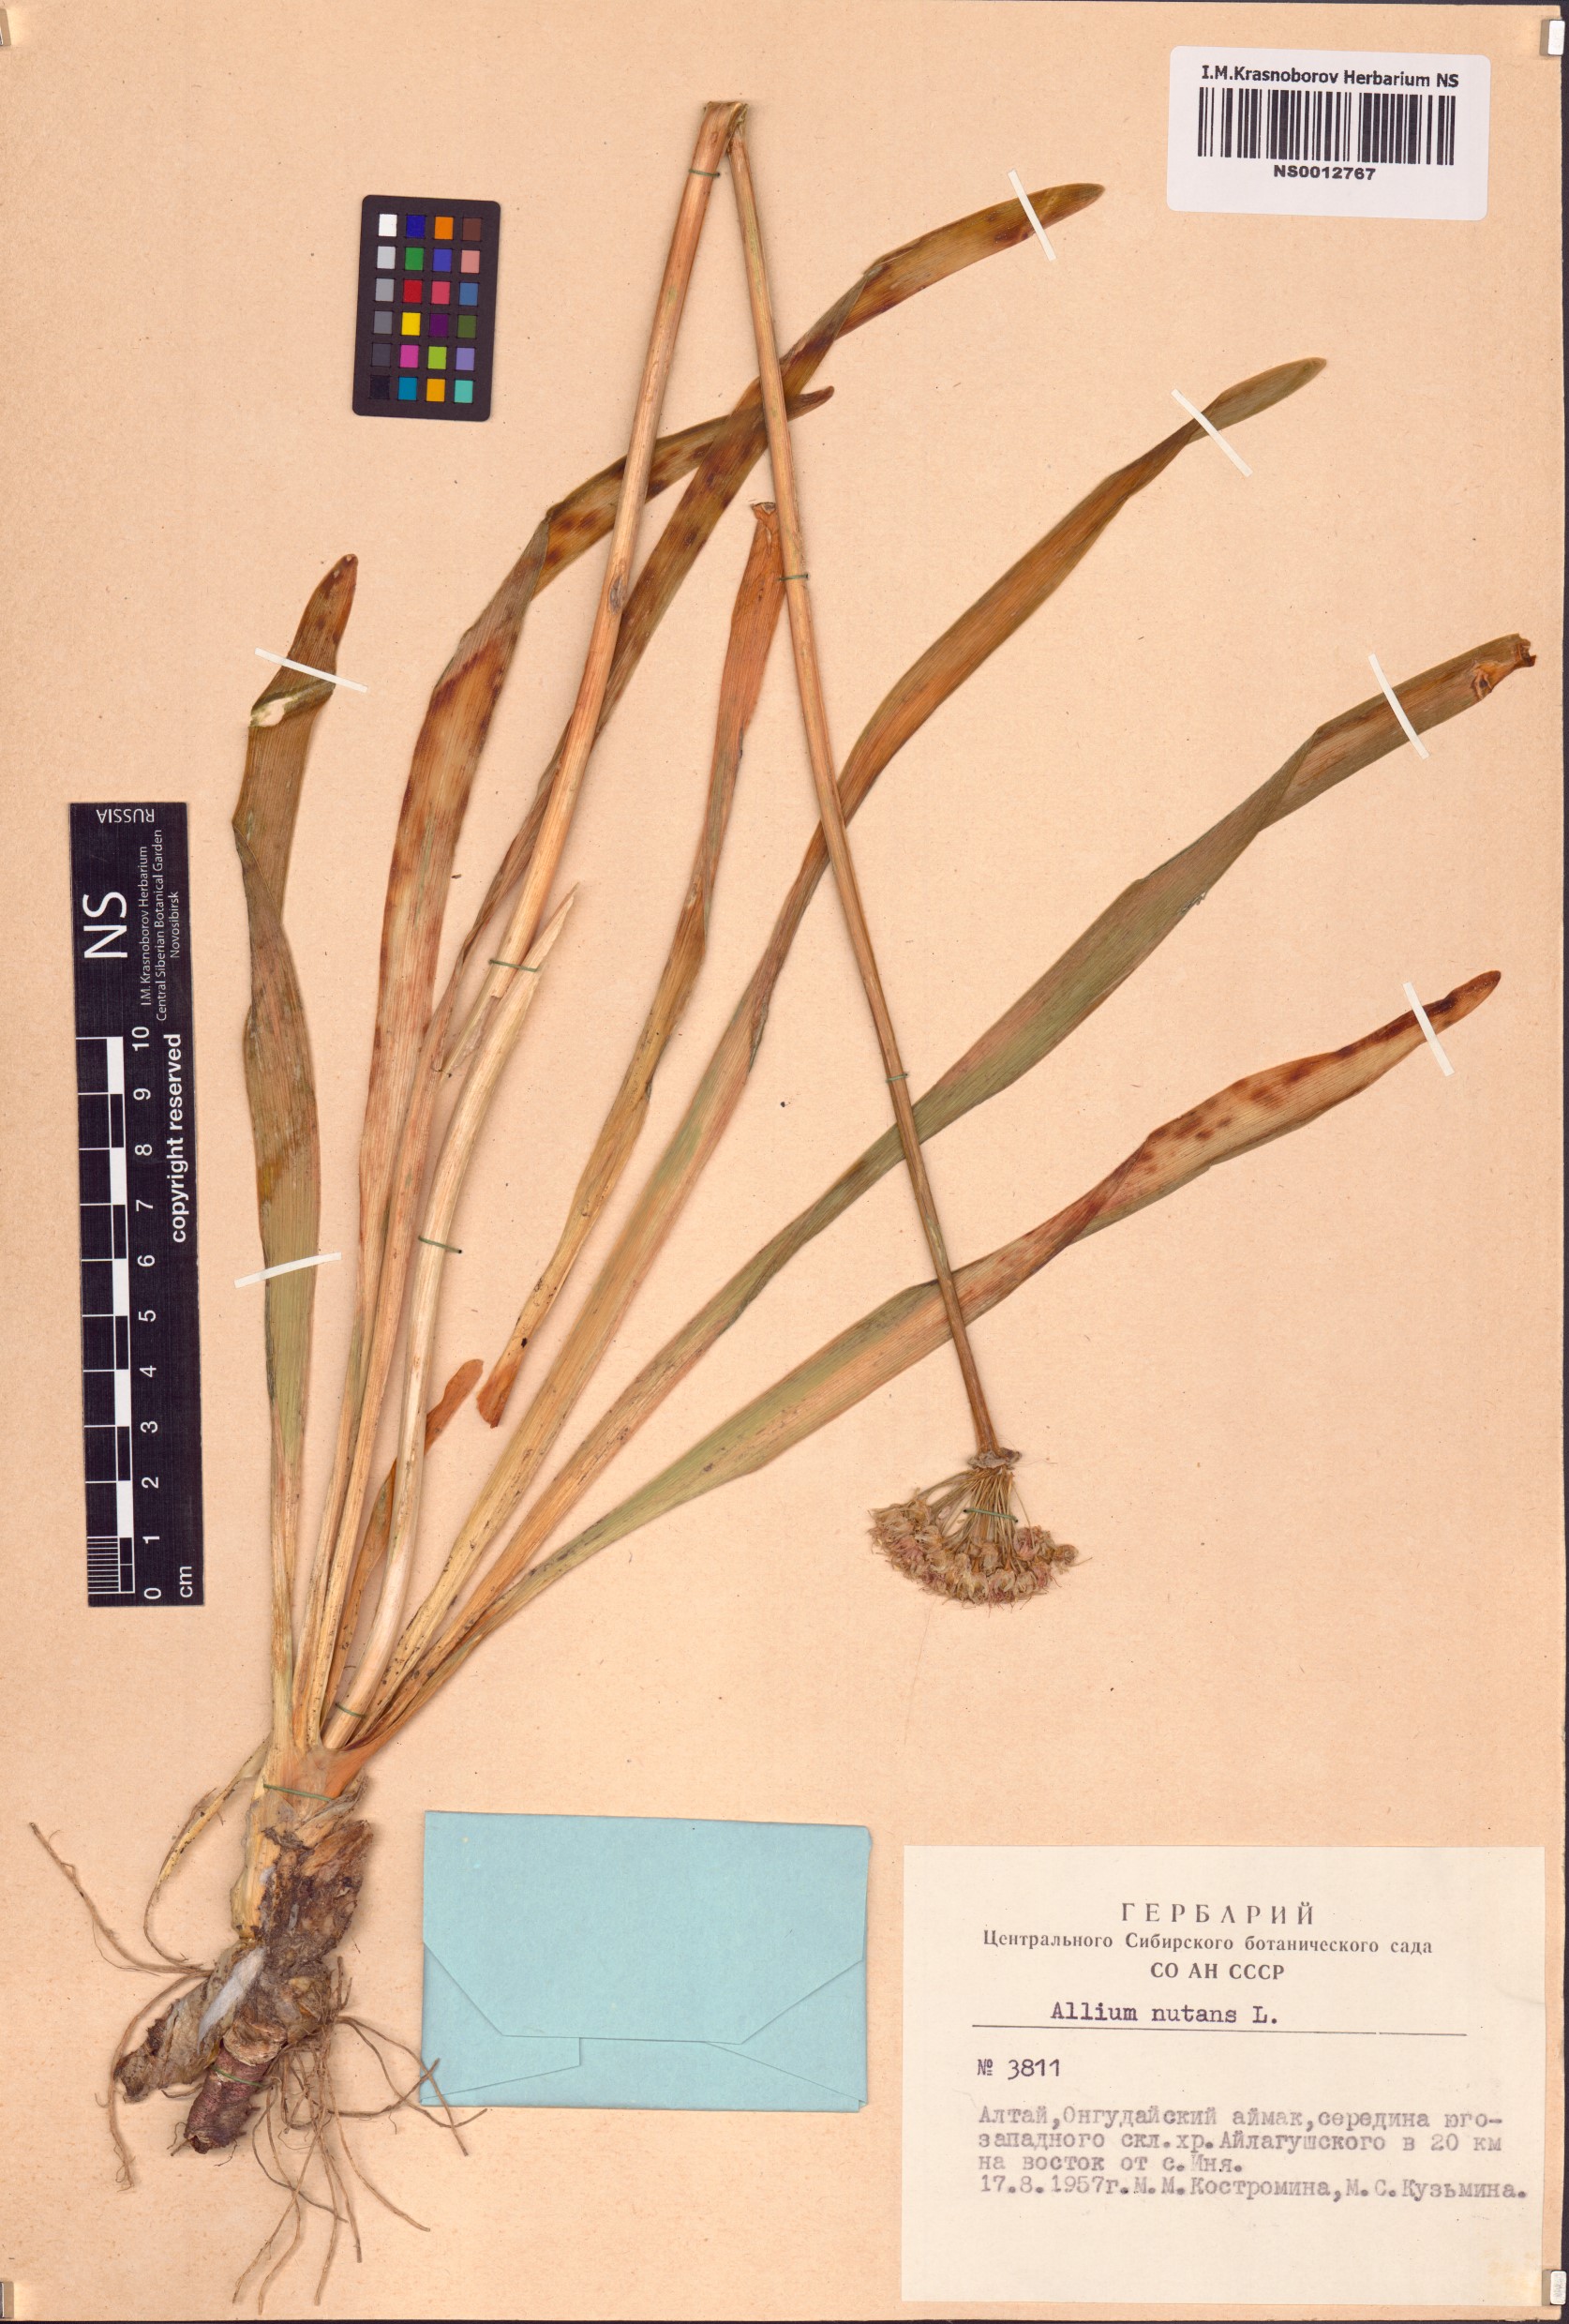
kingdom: Plantae
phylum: Tracheophyta
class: Liliopsida
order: Asparagales
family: Amaryllidaceae
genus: Allium
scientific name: Allium nutans
